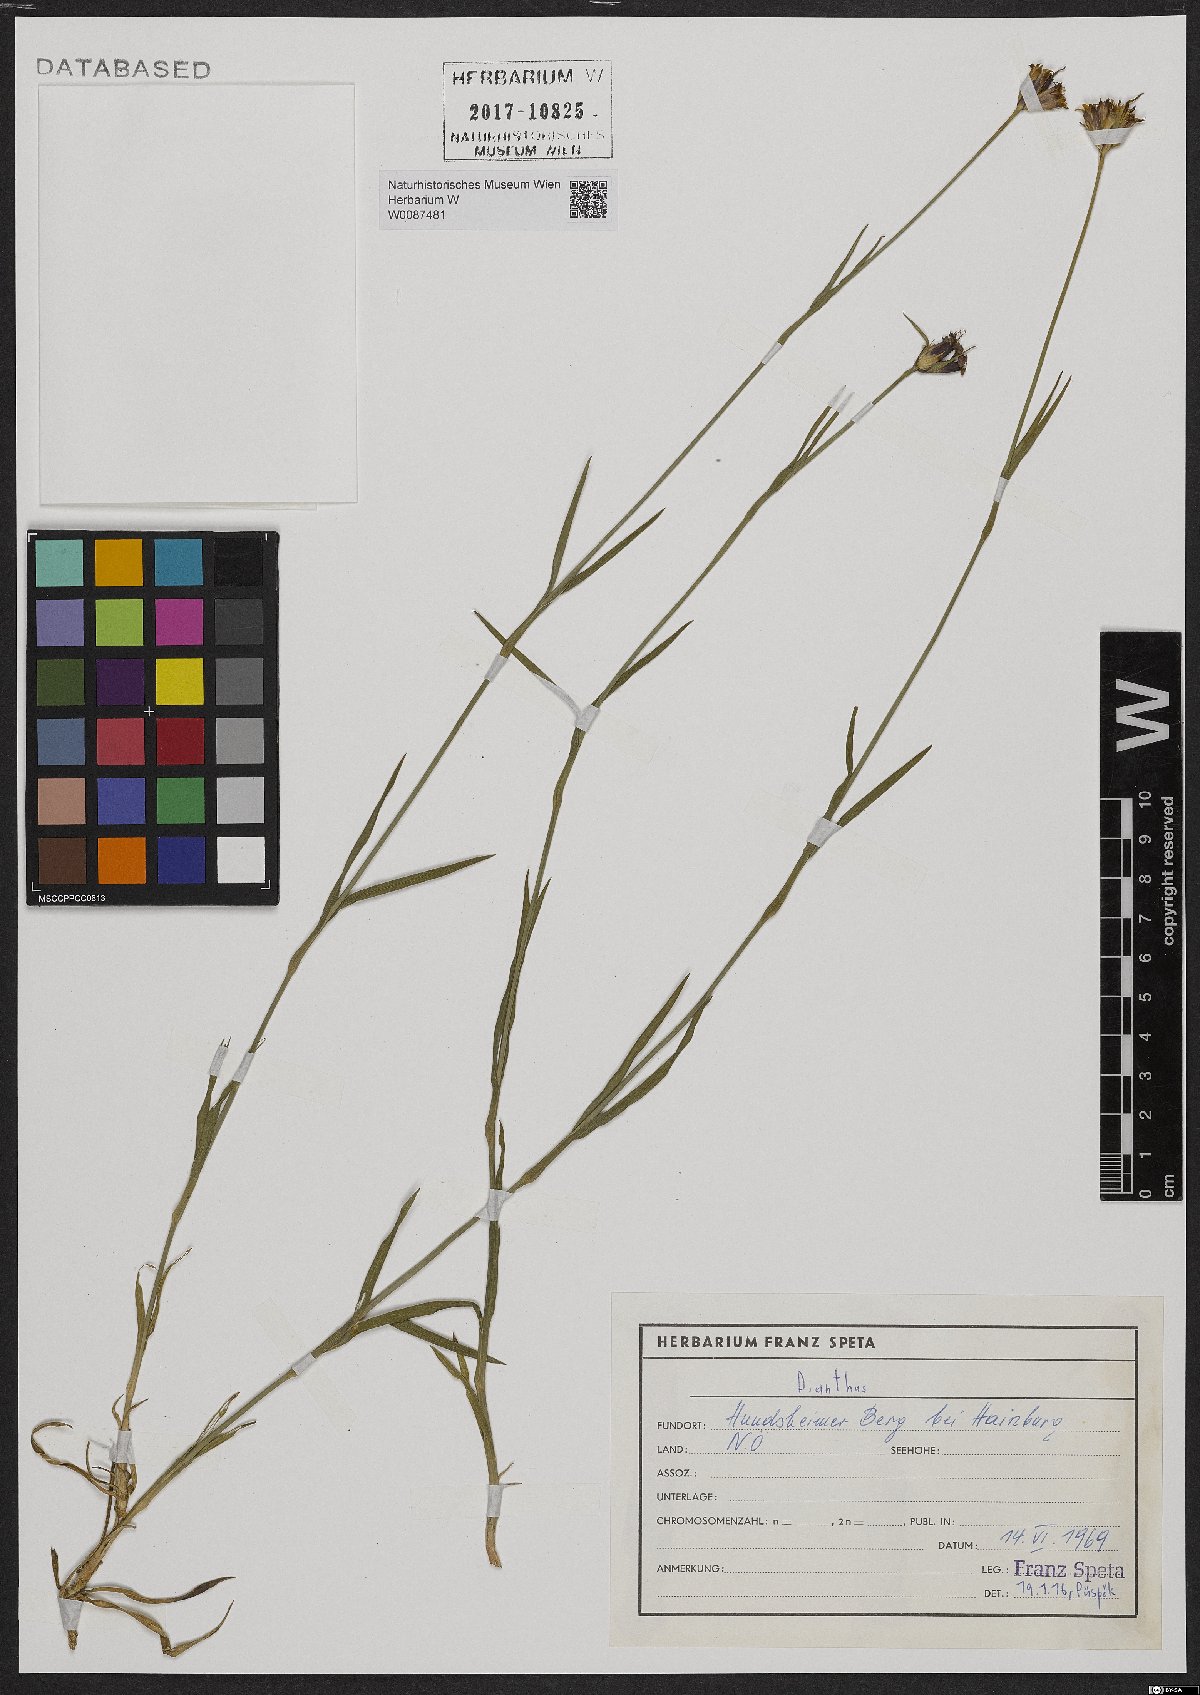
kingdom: Plantae
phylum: Tracheophyta
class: Magnoliopsida
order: Caryophyllales
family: Caryophyllaceae
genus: Dianthus
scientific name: Dianthus pontederae
